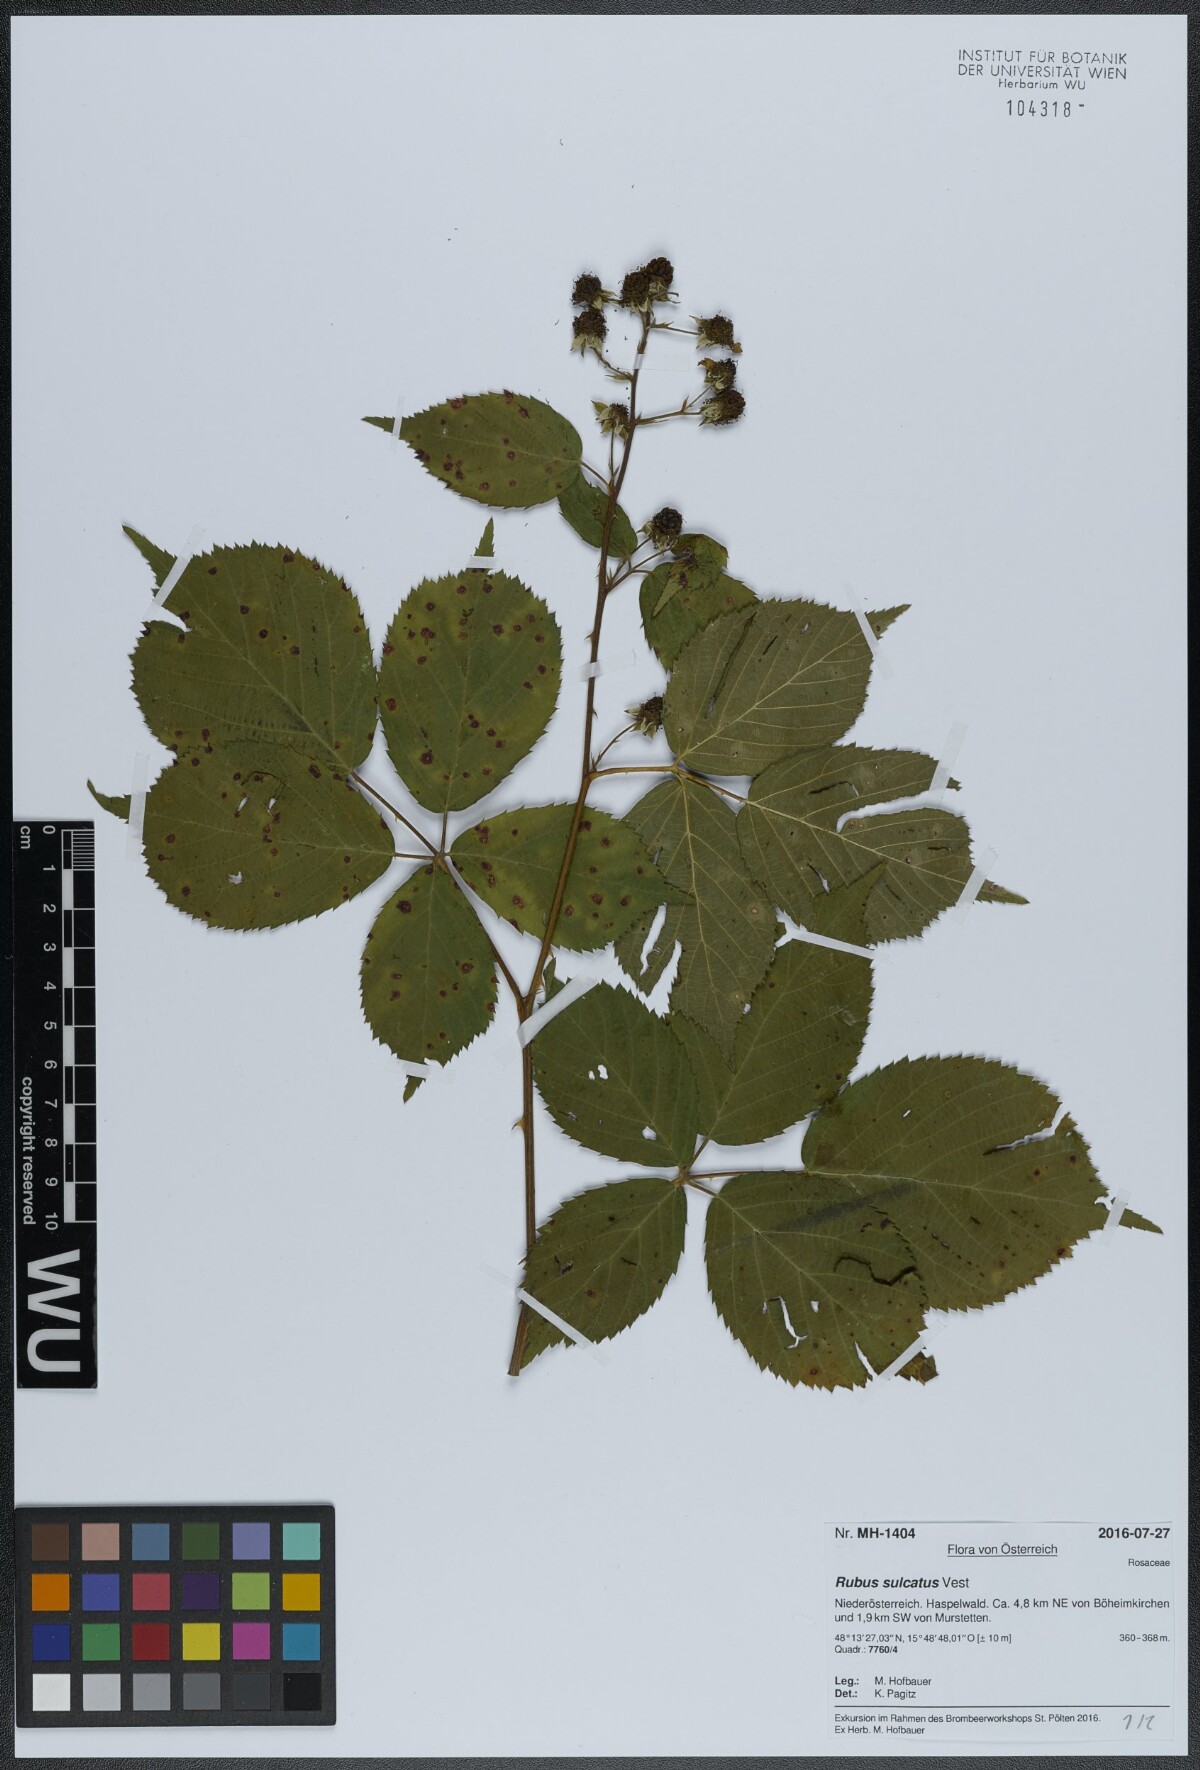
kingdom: Plantae
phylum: Tracheophyta
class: Magnoliopsida
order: Rosales
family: Rosaceae
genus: Rubus
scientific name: Rubus sulcatus
